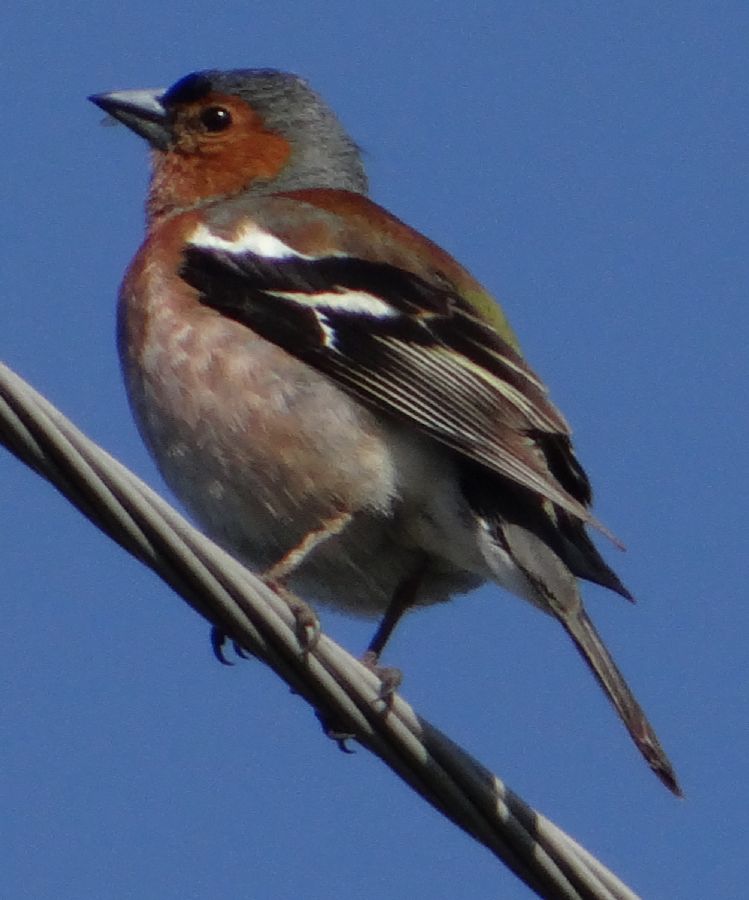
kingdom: Animalia
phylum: Chordata
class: Aves
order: Passeriformes
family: Fringillidae
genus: Fringilla
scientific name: Fringilla coelebs
